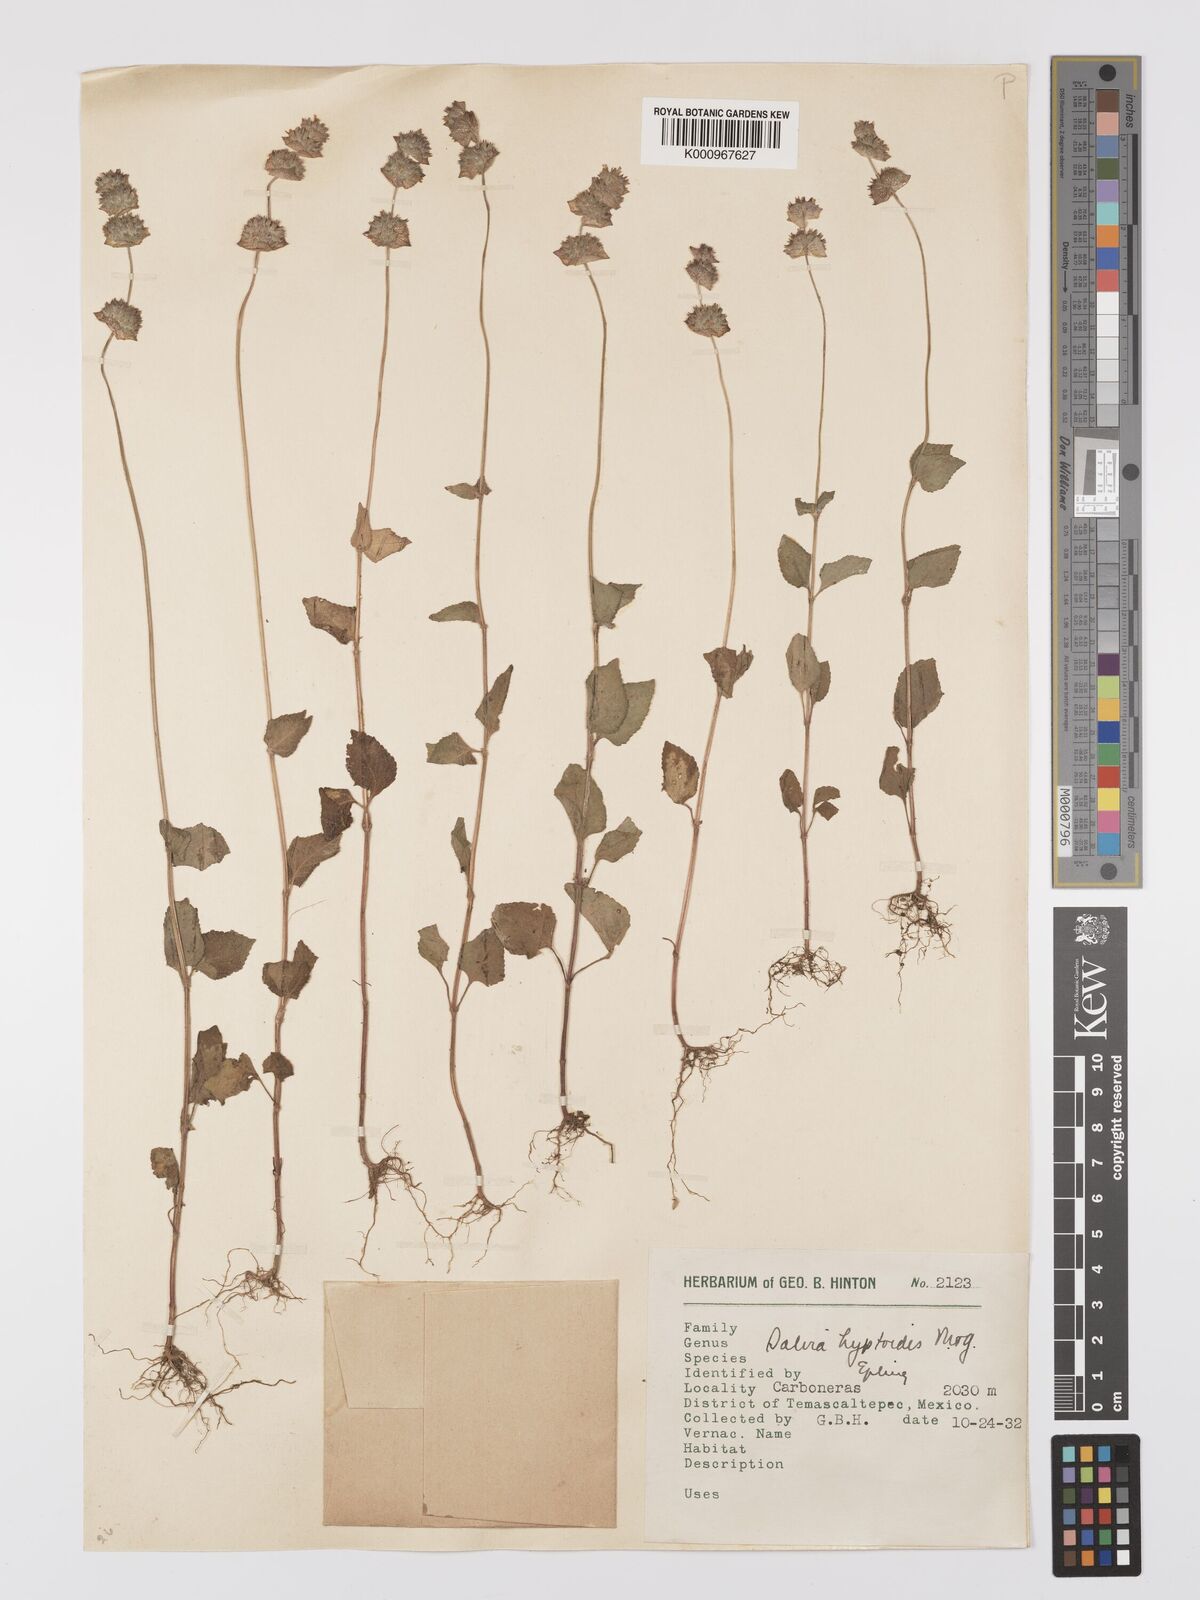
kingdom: Plantae
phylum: Tracheophyta
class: Magnoliopsida
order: Lamiales
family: Lamiaceae
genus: Salvia
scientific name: Salvia lasiocephala
